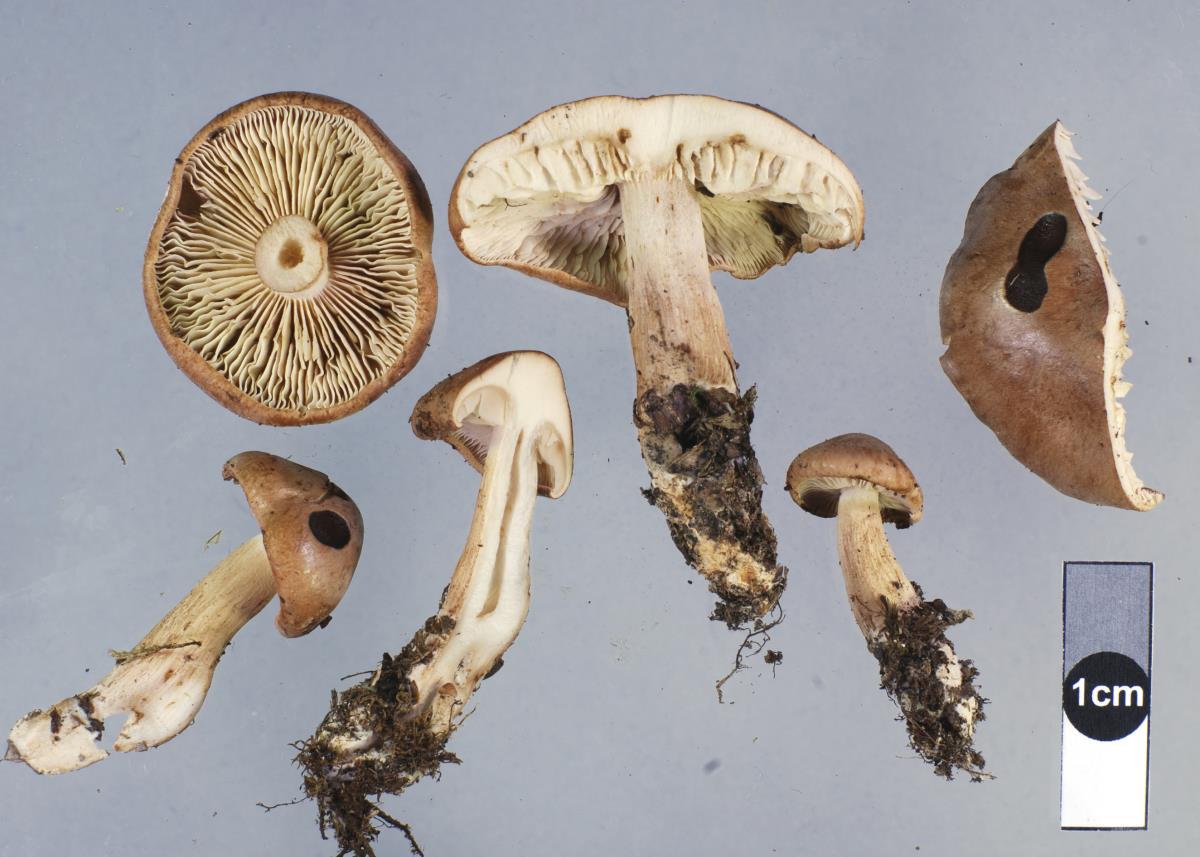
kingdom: Fungi
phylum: Basidiomycota
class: Agaricomycetes
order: Agaricales
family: Tricholomataceae
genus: Tricholoma
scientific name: Tricholoma elegans
